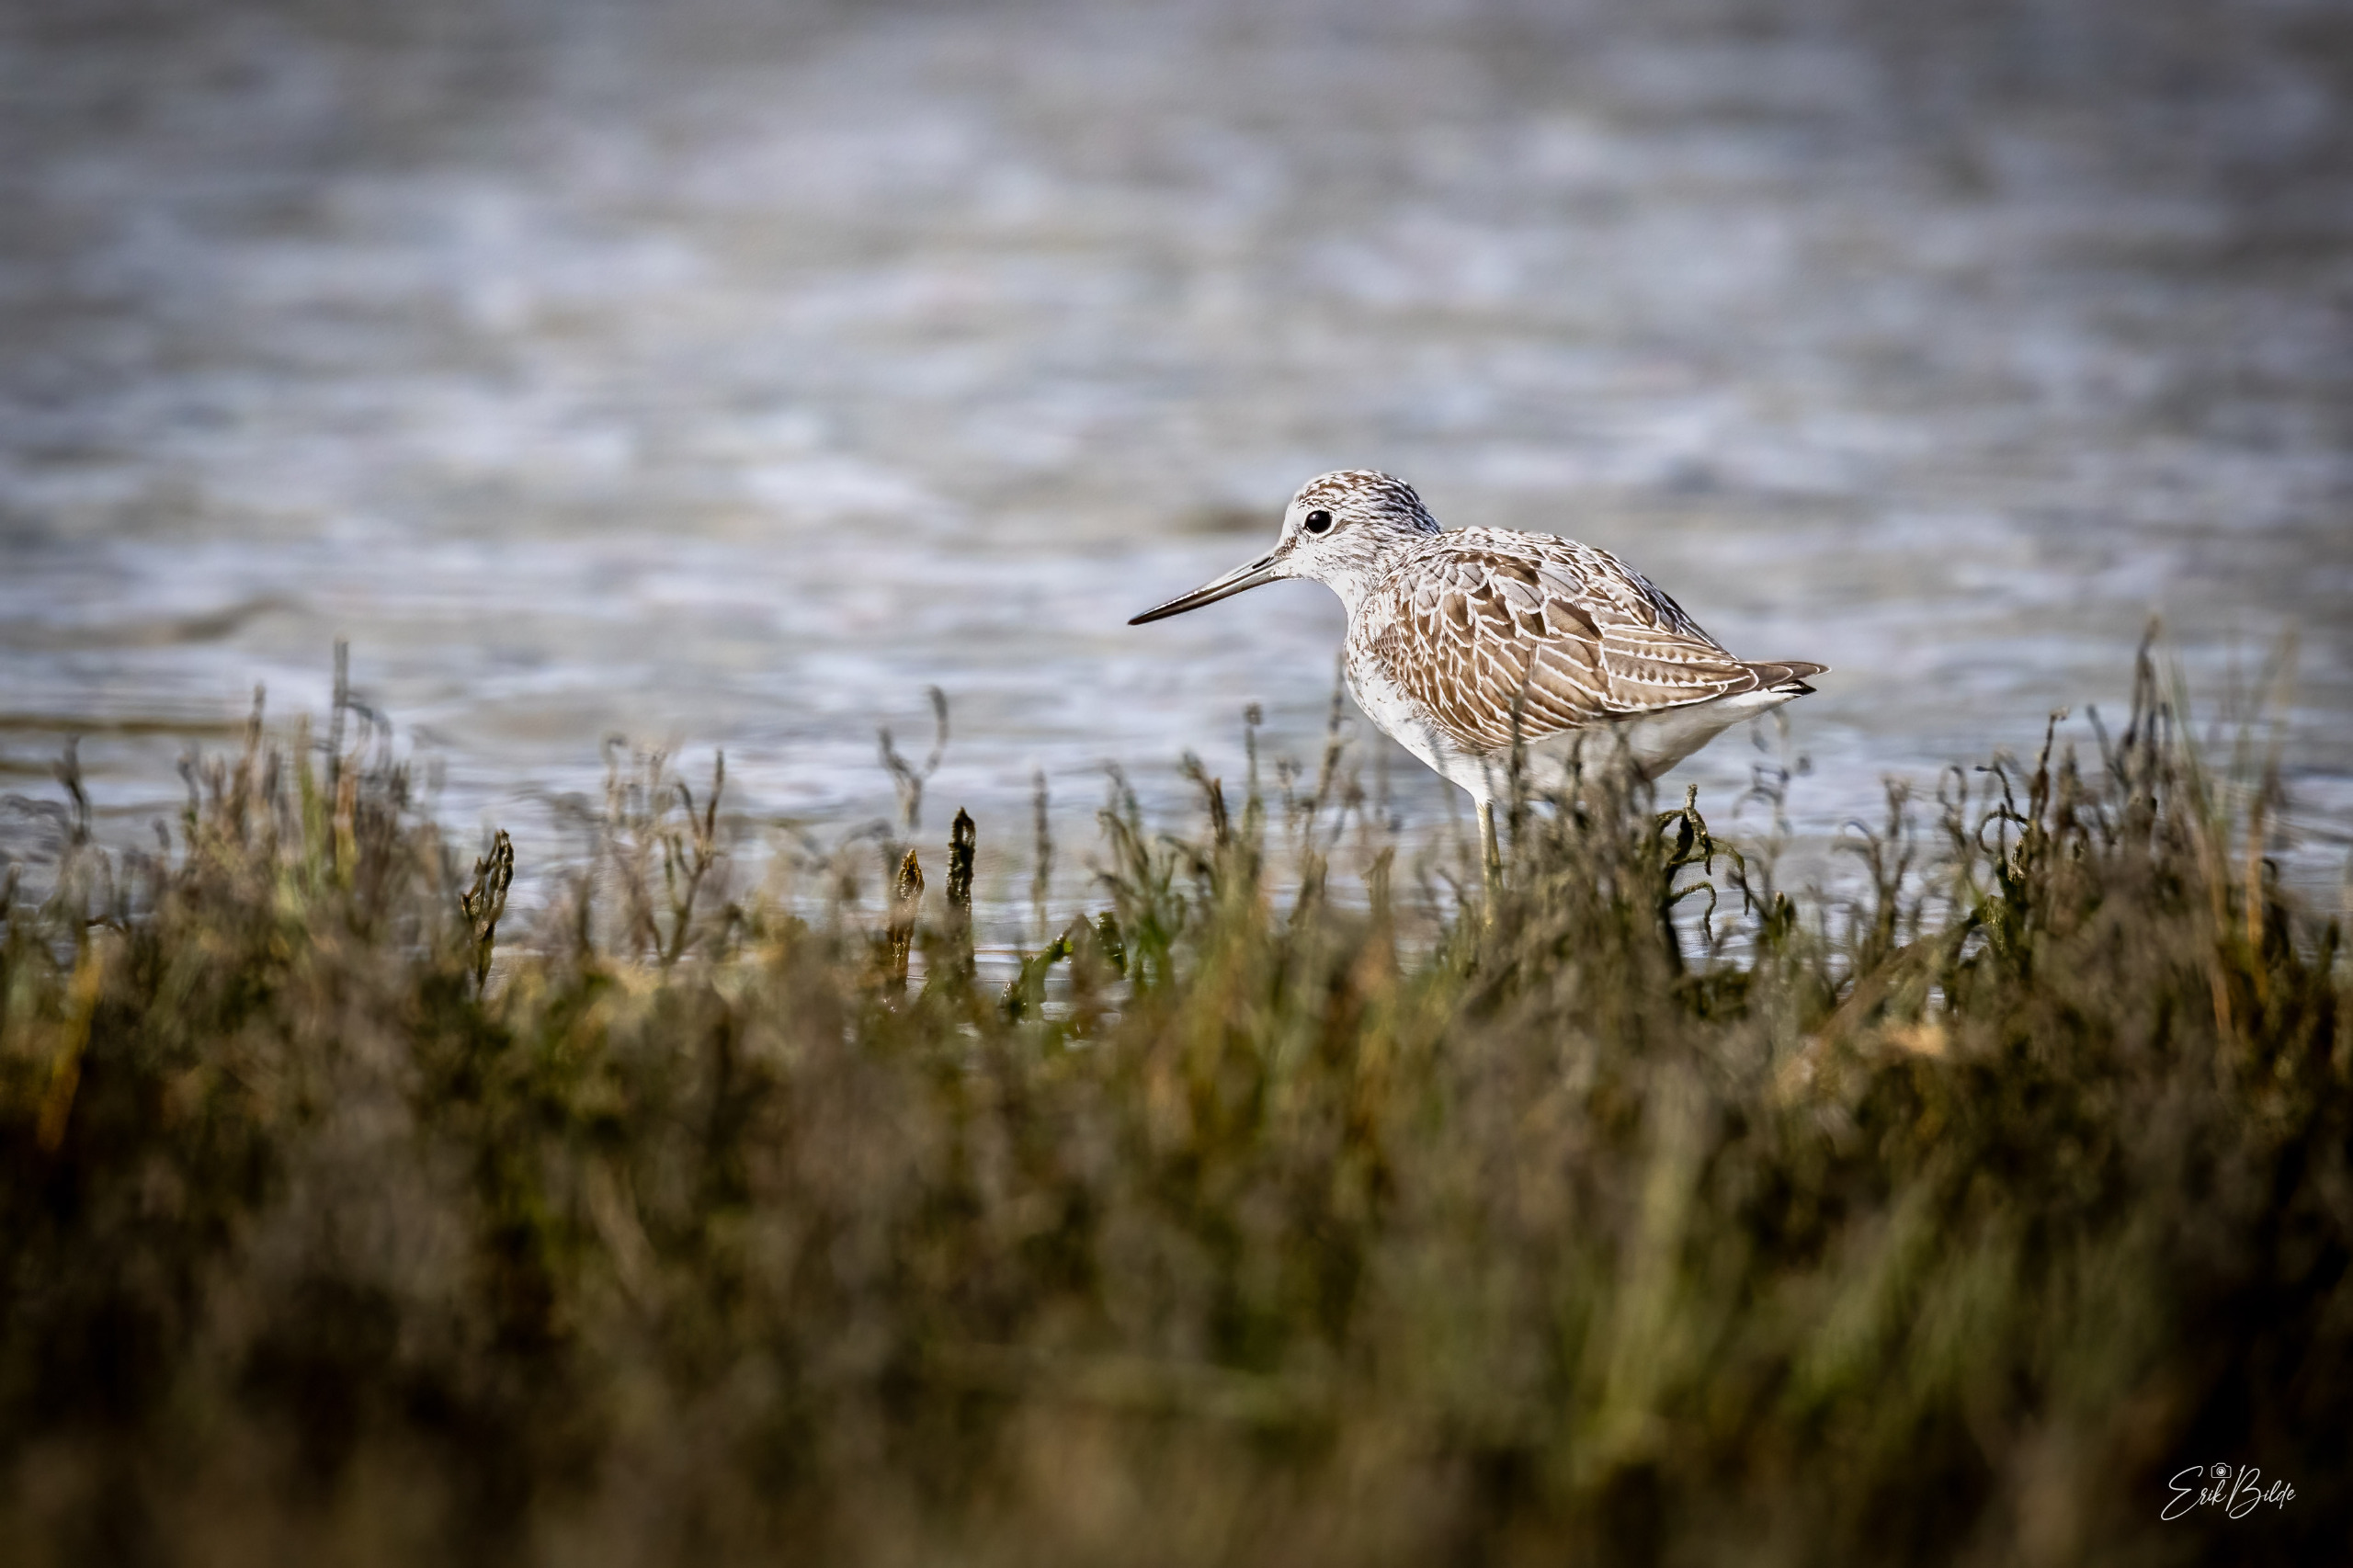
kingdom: Animalia
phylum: Chordata
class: Aves
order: Charadriiformes
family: Scolopacidae
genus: Tringa
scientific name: Tringa nebularia
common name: Hvidklire
